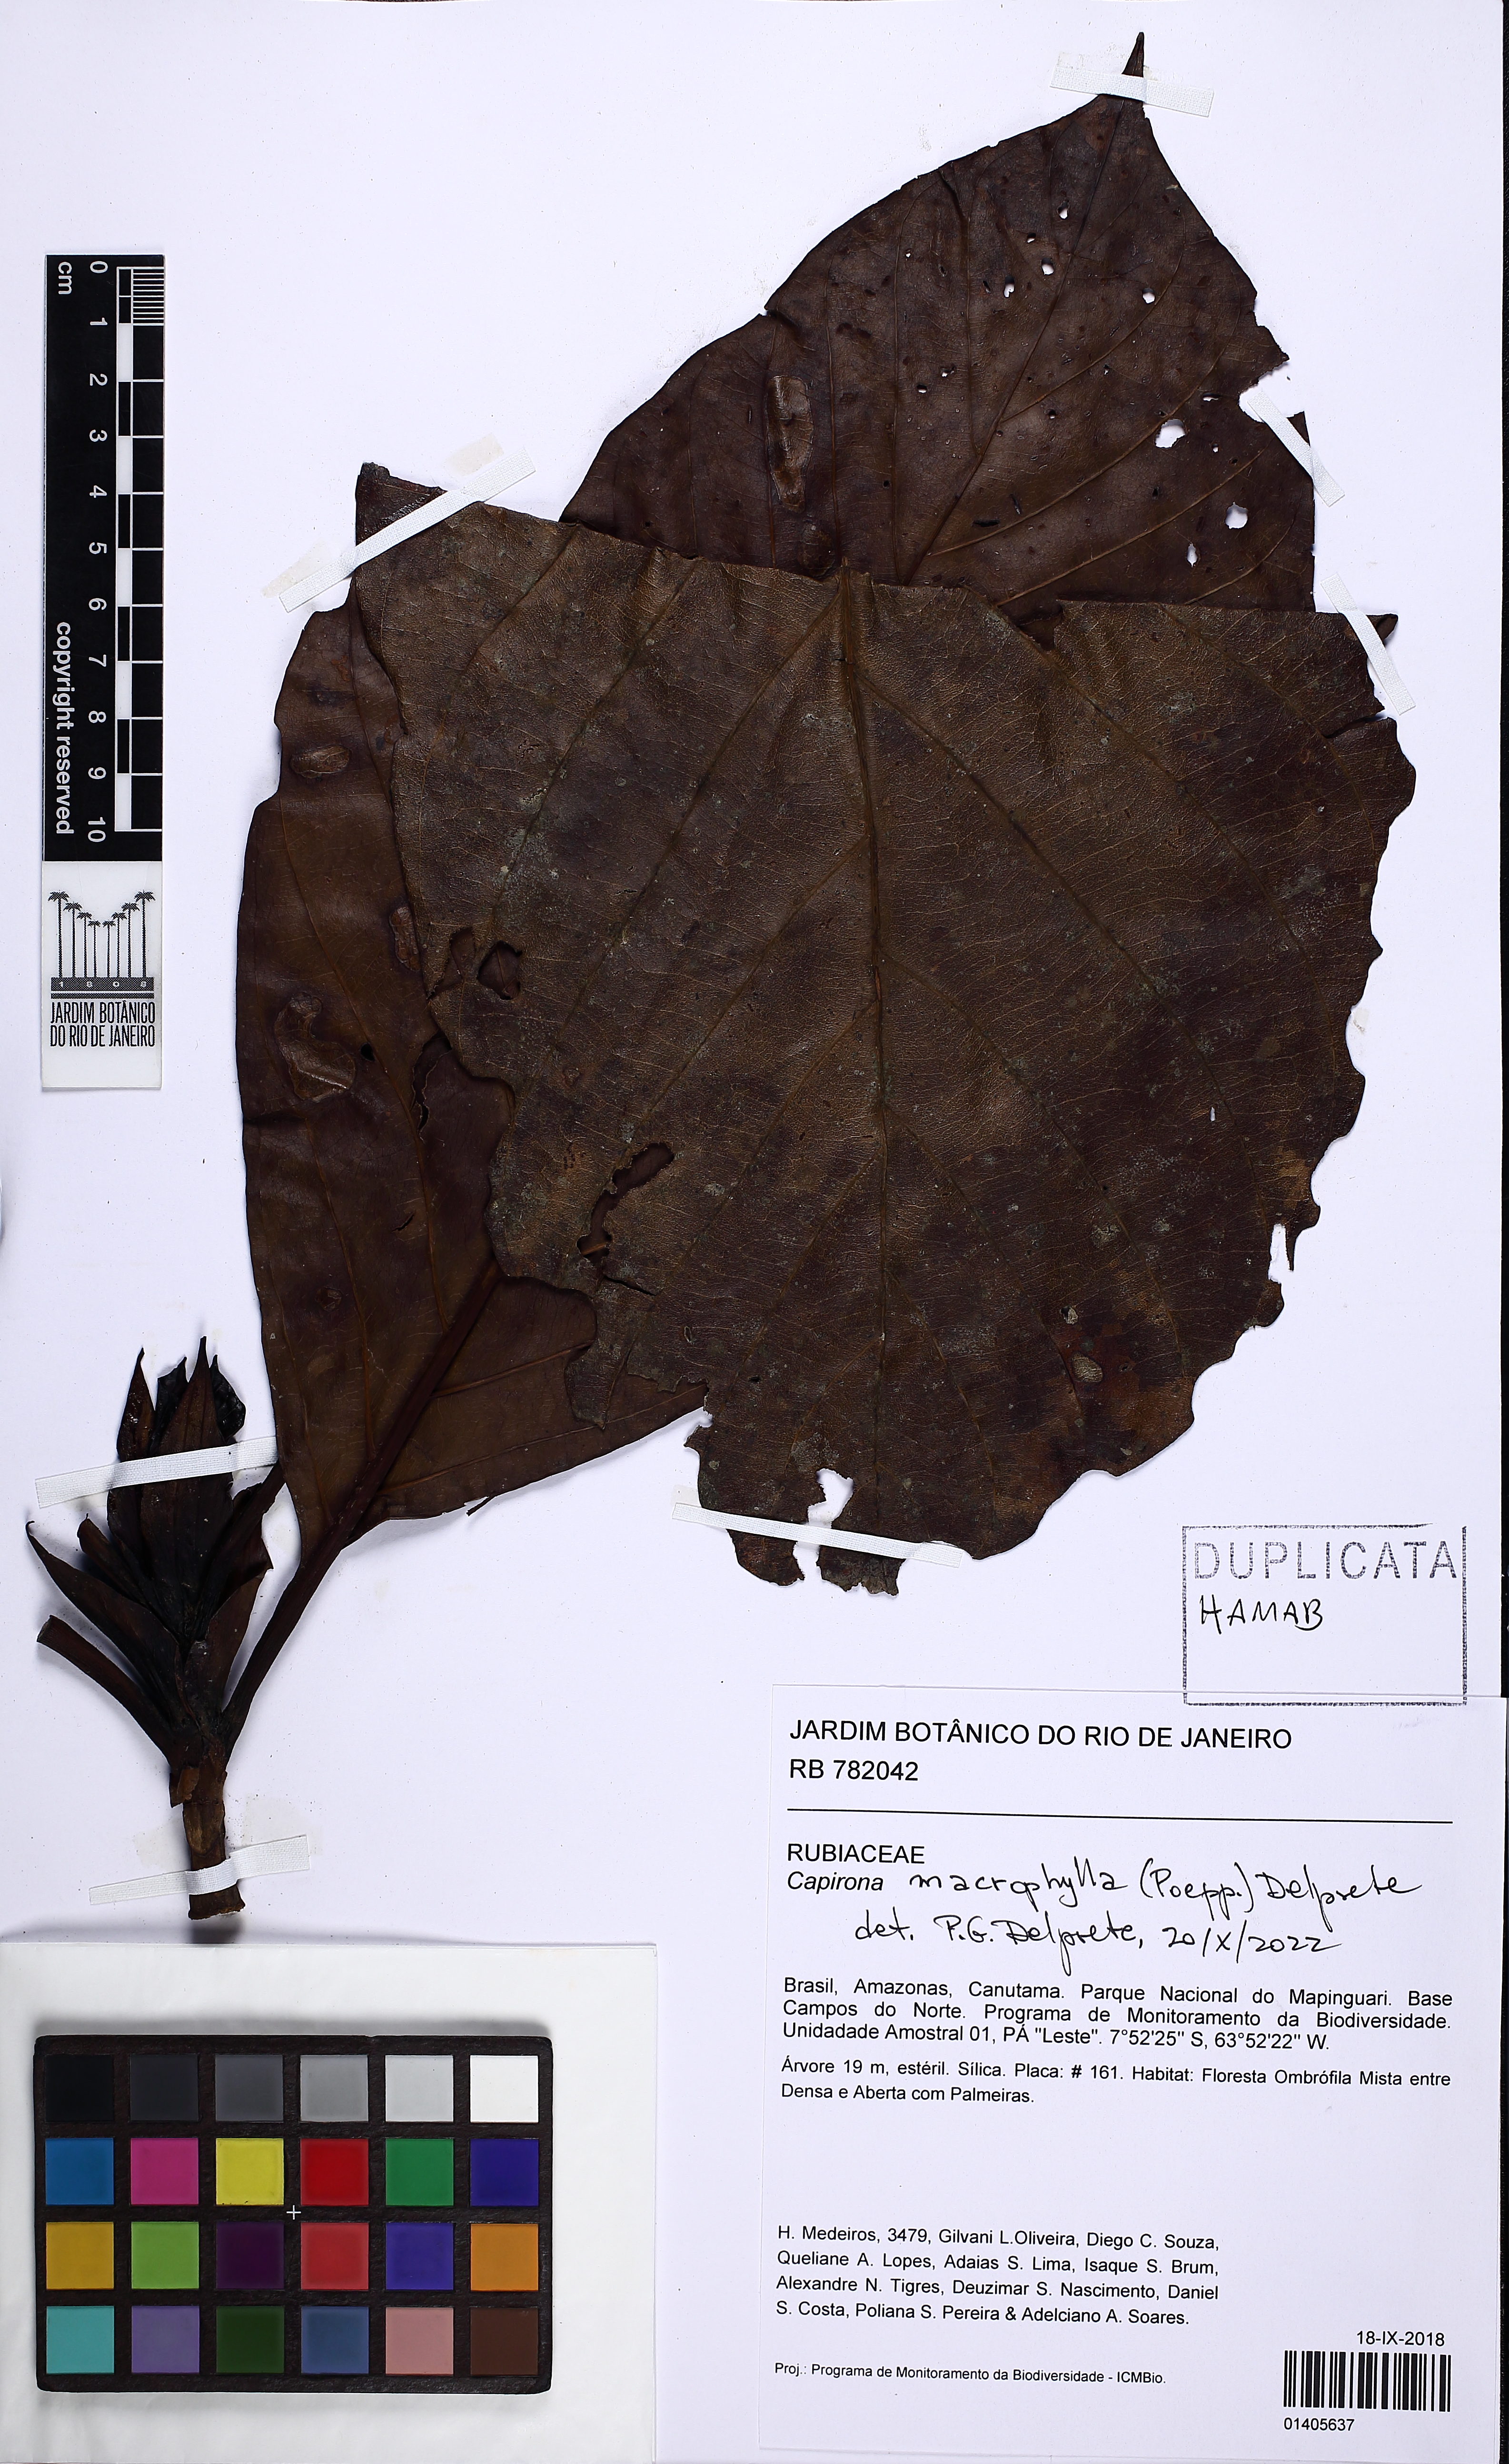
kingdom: Plantae
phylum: Tracheophyta
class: Magnoliopsida
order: Gentianales
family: Rubiaceae
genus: Capirona
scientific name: Capirona macrophylla
